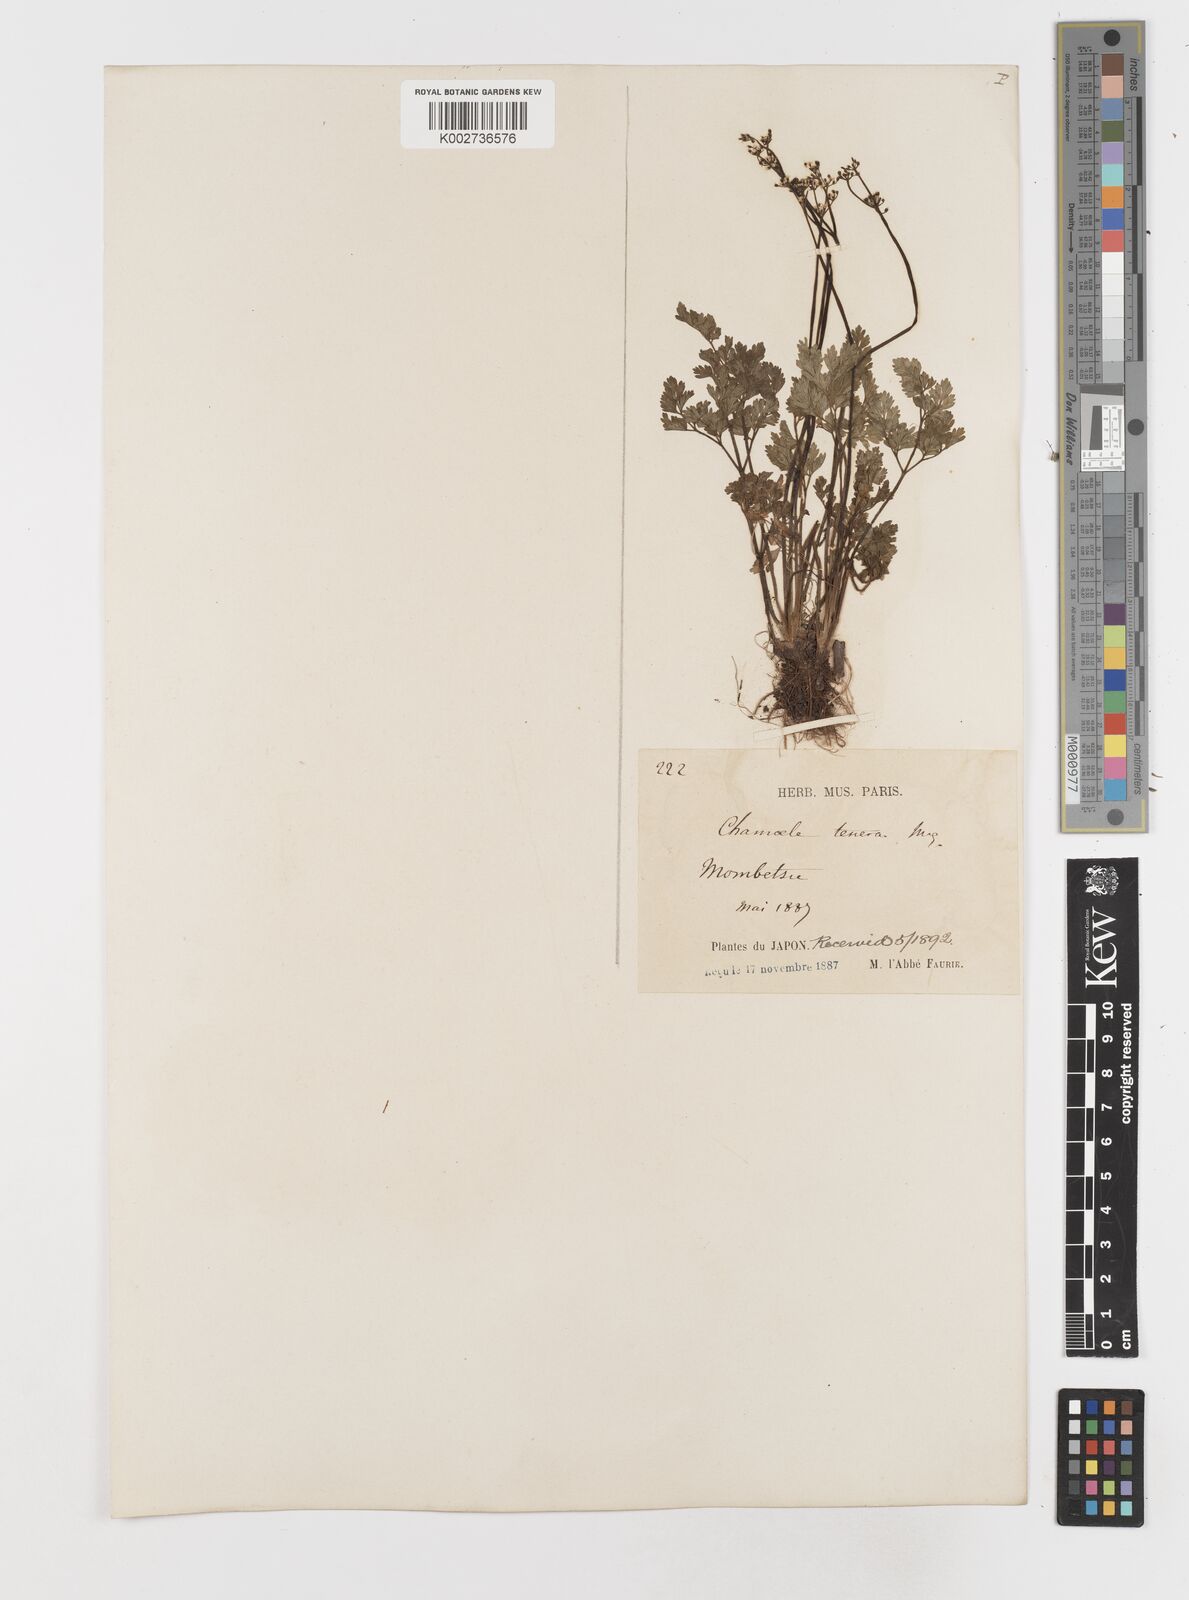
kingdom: Plantae
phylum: Tracheophyta
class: Magnoliopsida
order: Apiales
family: Apiaceae
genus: Aegopodium
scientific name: Aegopodium decumbens
